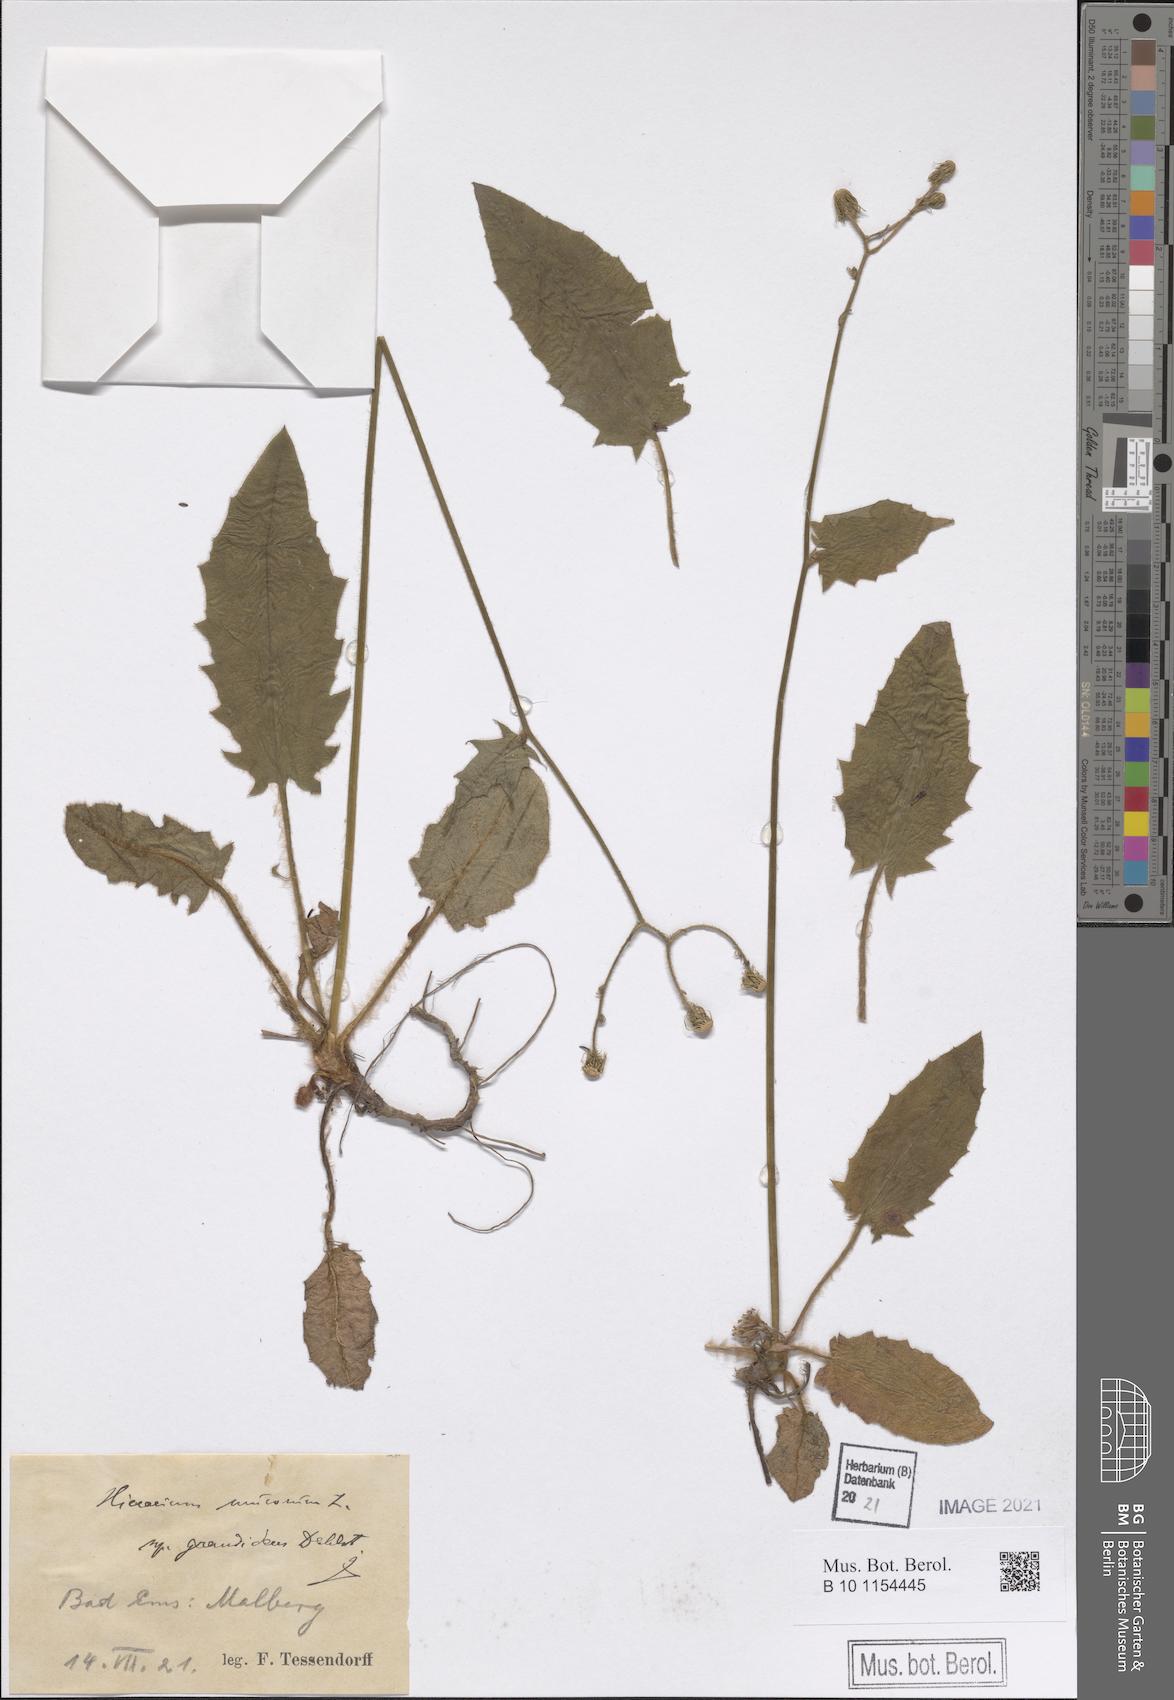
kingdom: Plantae
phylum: Tracheophyta
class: Magnoliopsida
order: Asterales
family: Asteraceae
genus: Hieracium
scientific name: Hieracium murorum
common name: Wall hawkweed
